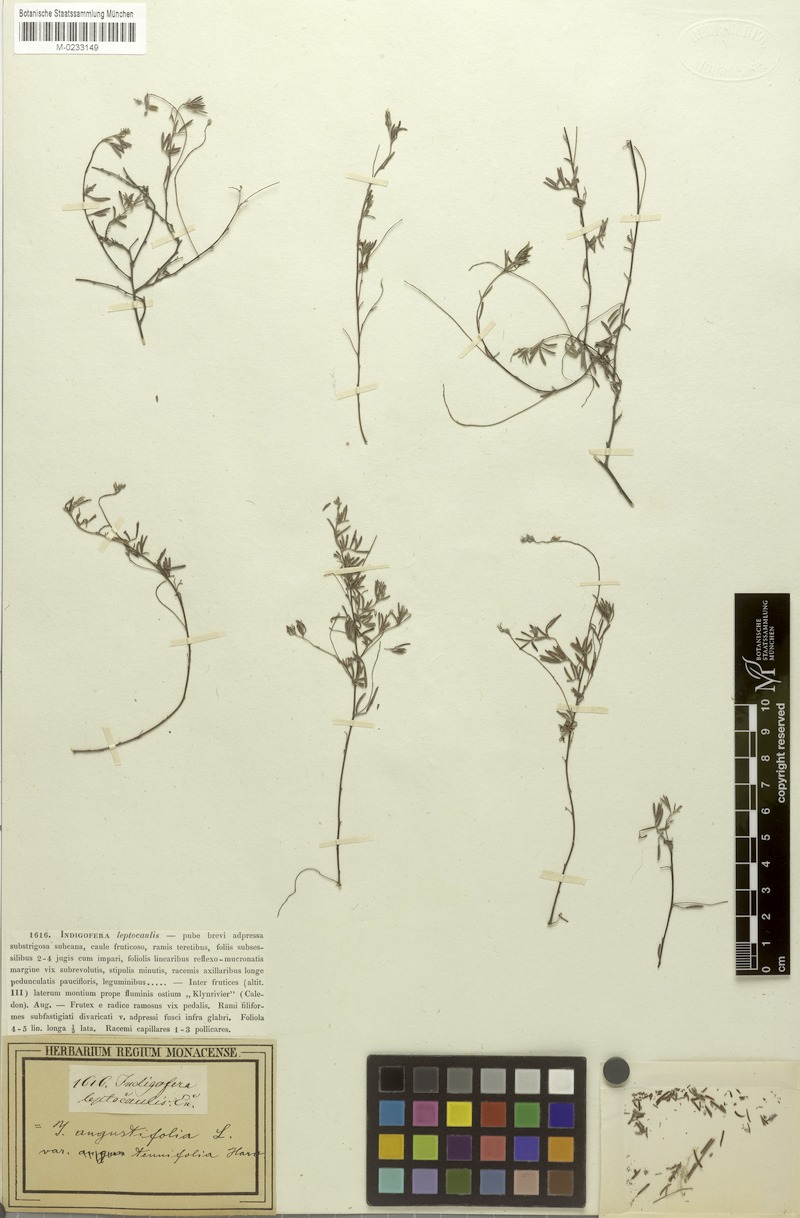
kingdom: Plantae
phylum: Tracheophyta
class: Magnoliopsida
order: Fabales
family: Fabaceae
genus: Indigofera
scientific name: Indigofera angustifolia
